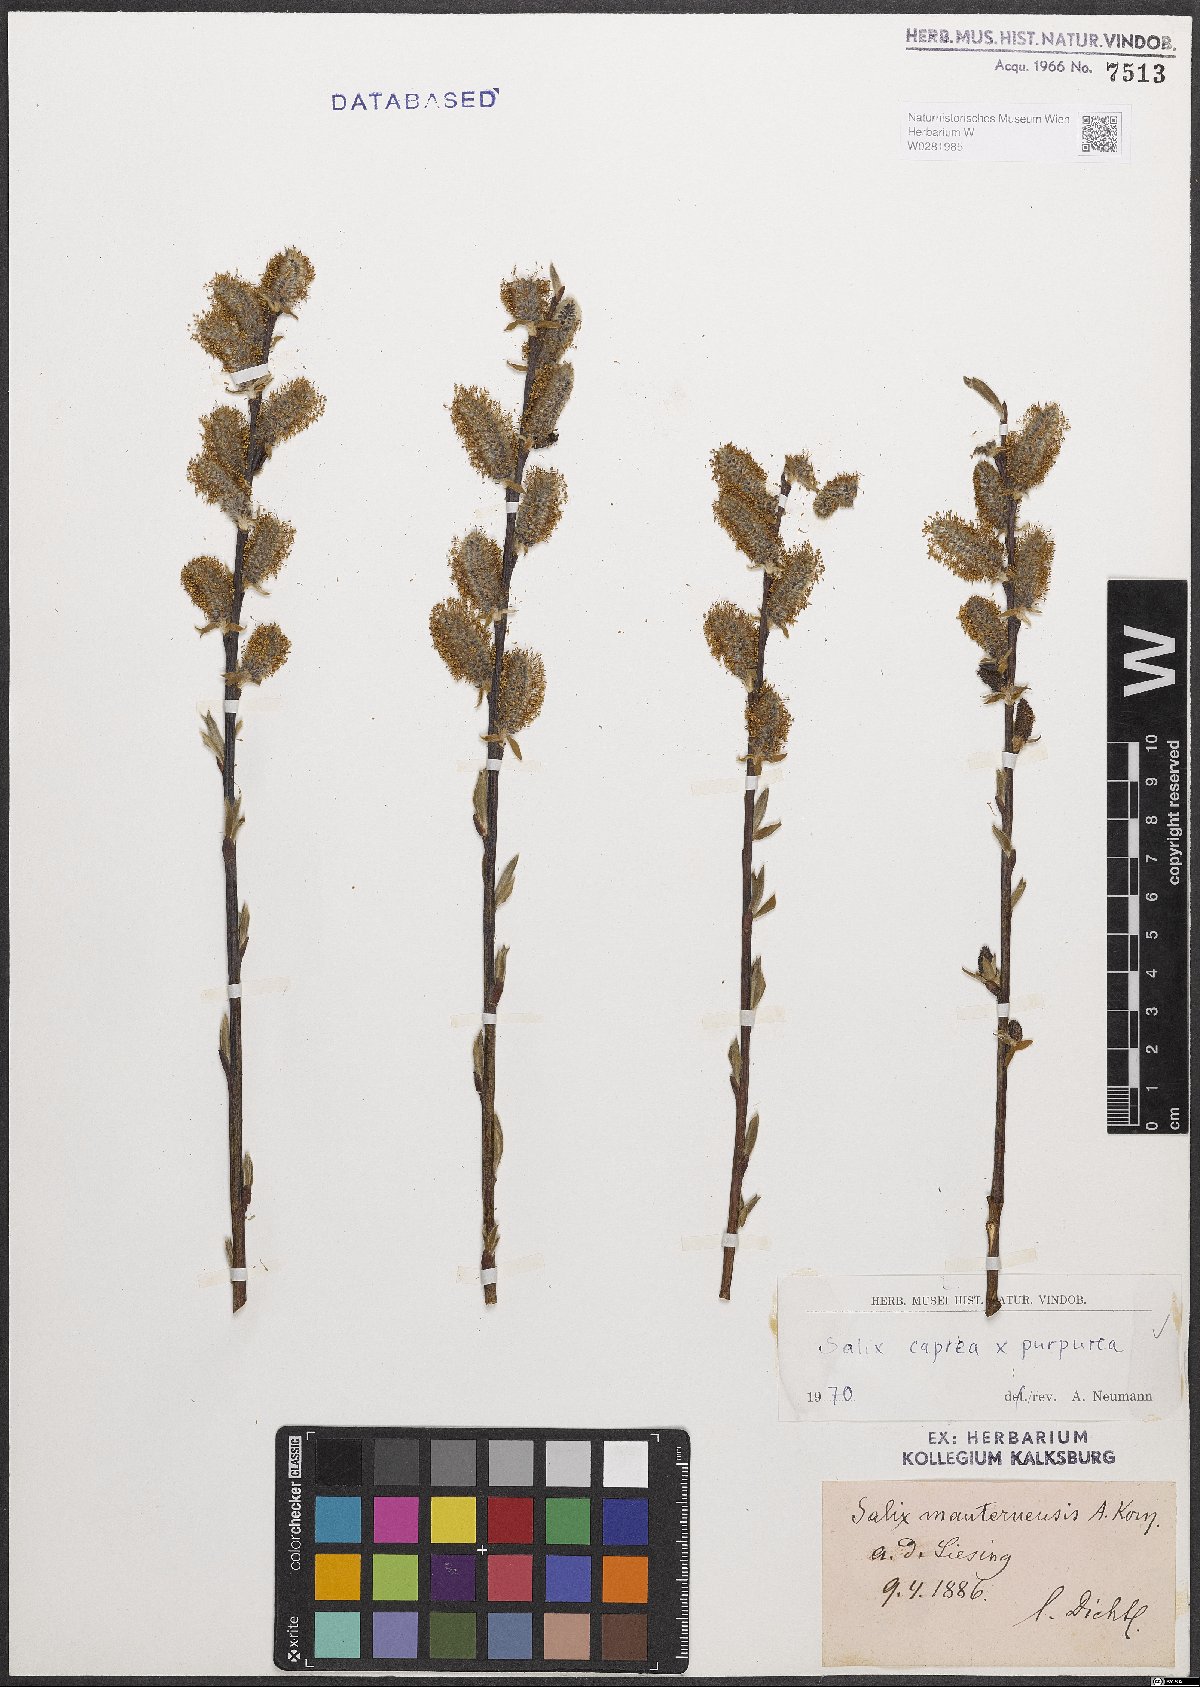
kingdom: Plantae
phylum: Tracheophyta
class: Magnoliopsida
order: Malpighiales
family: Salicaceae
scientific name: Salicaceae
